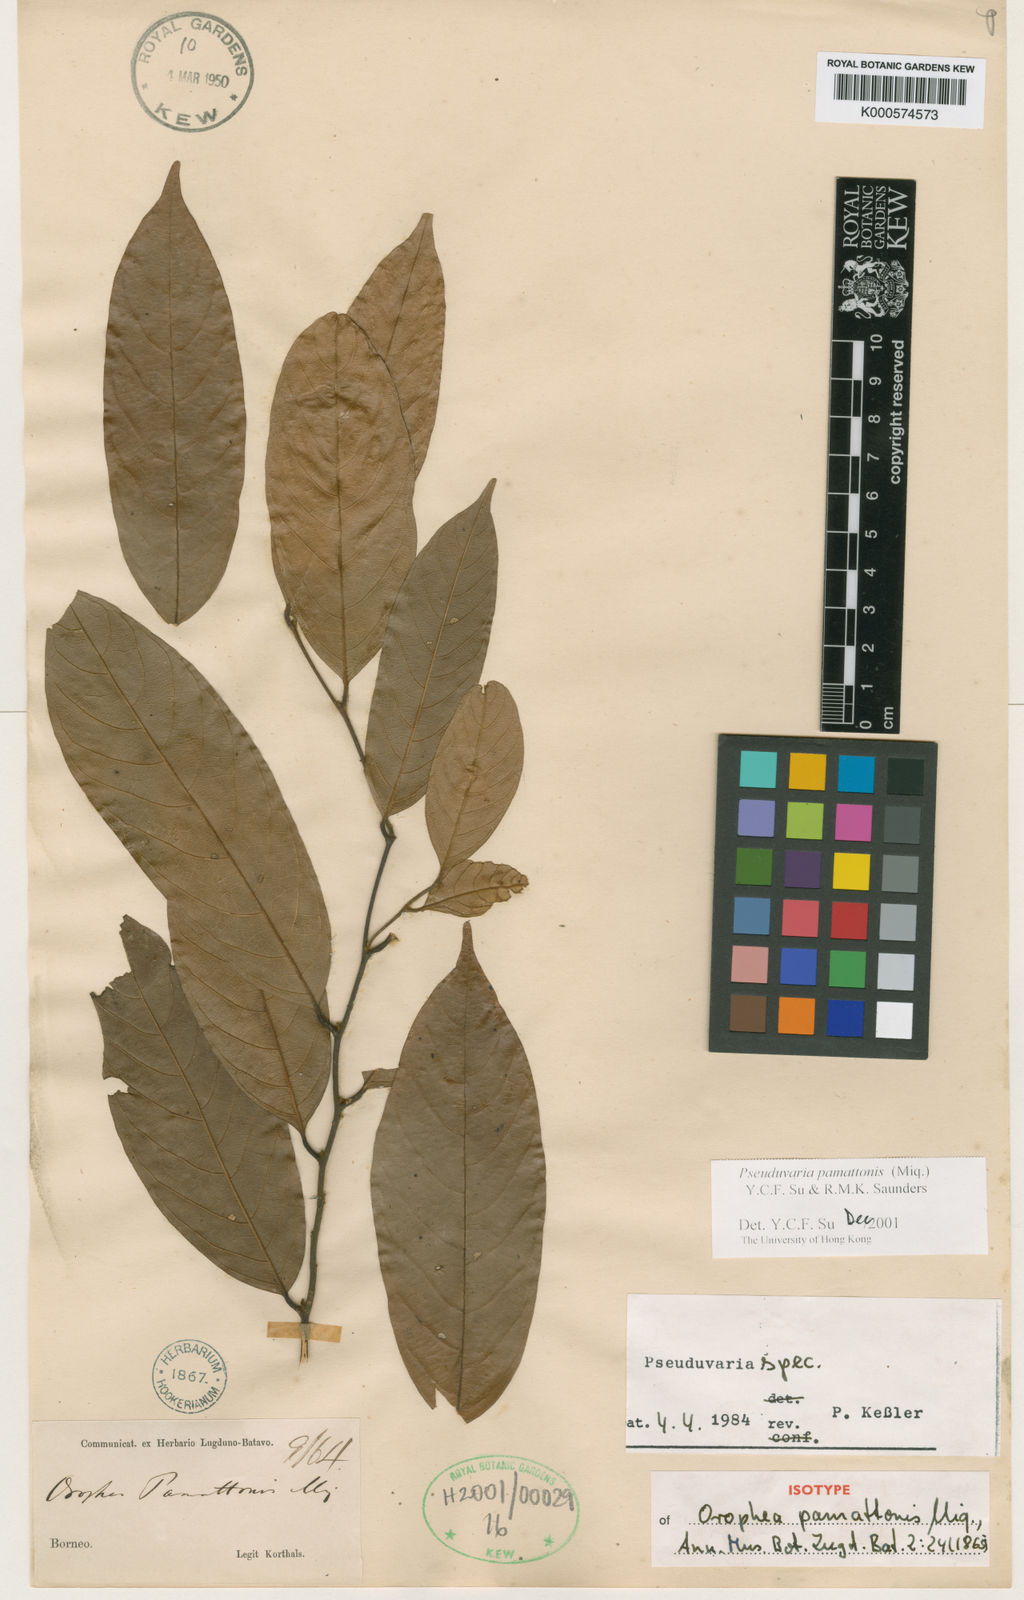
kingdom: Plantae
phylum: Tracheophyta
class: Magnoliopsida
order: Magnoliales
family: Annonaceae
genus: Pseuduvaria
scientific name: Pseuduvaria pamattonis
